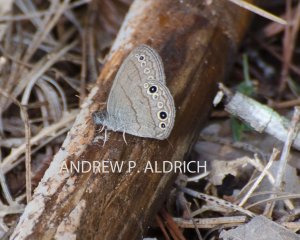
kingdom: Animalia
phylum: Arthropoda
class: Insecta
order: Lepidoptera
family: Nymphalidae
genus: Hermeuptychia
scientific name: Hermeuptychia hermes
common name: Carolina Satyr
